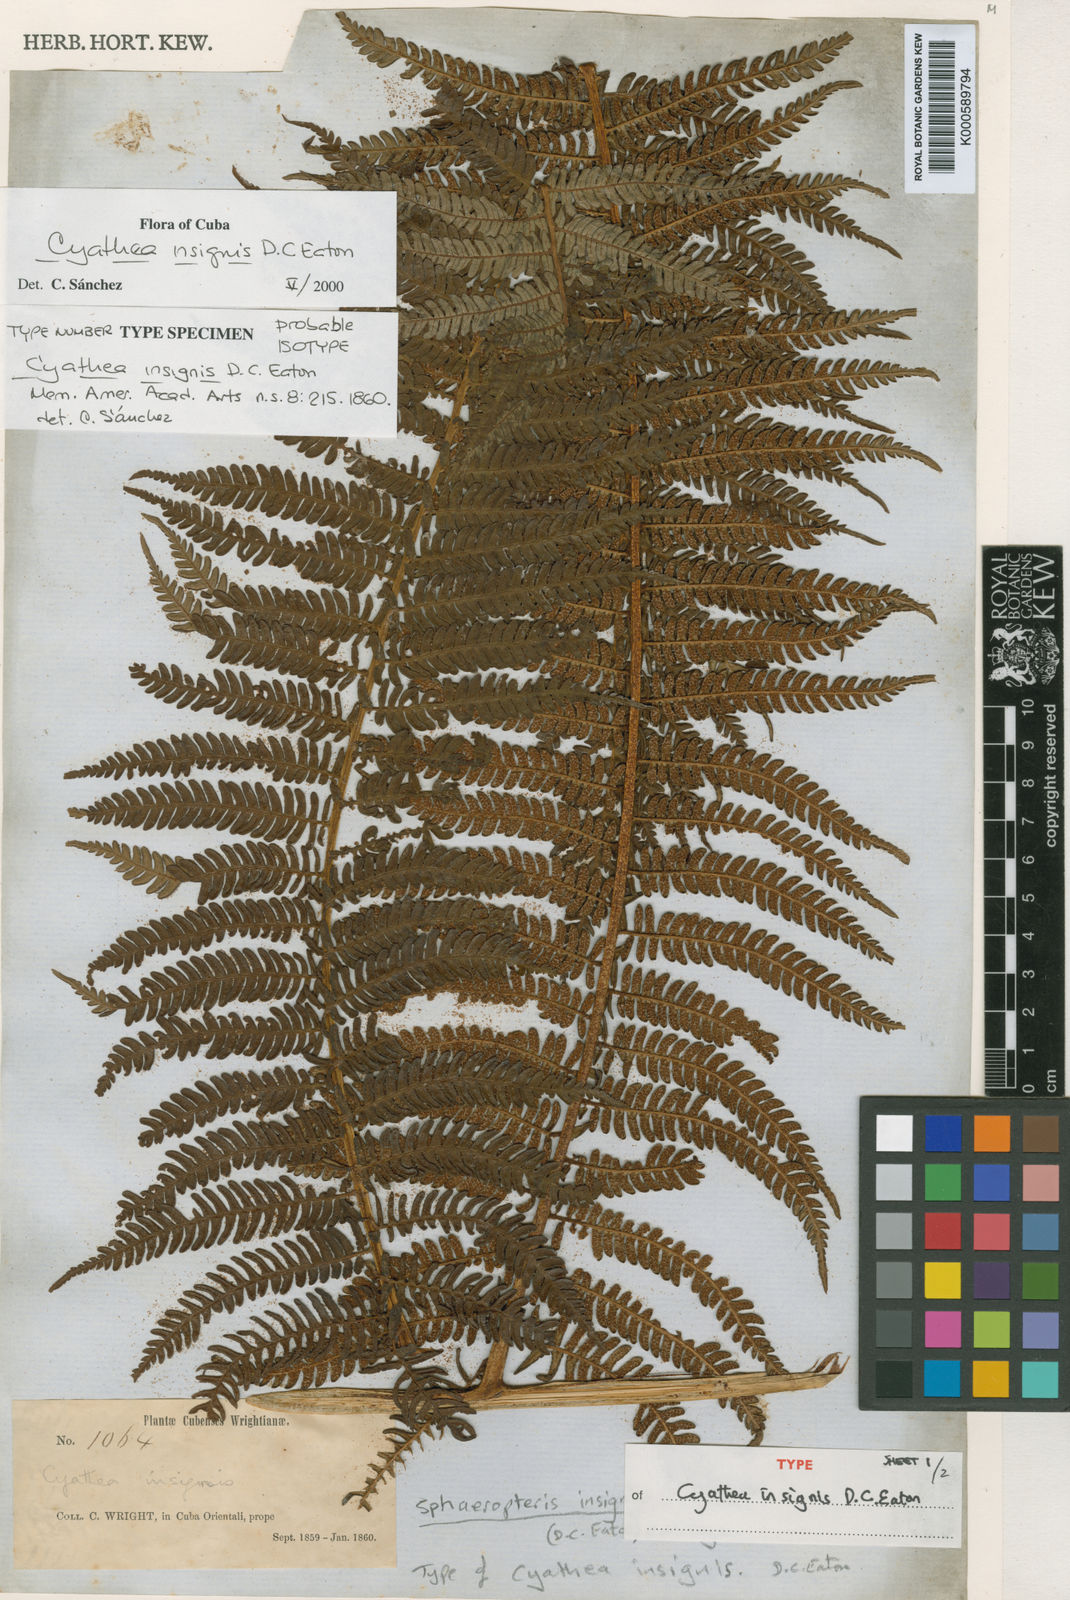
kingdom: Plantae
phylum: Tracheophyta
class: Polypodiopsida
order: Cyatheales
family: Cyatheaceae
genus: Sphaeropteris
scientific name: Sphaeropteris insignis
